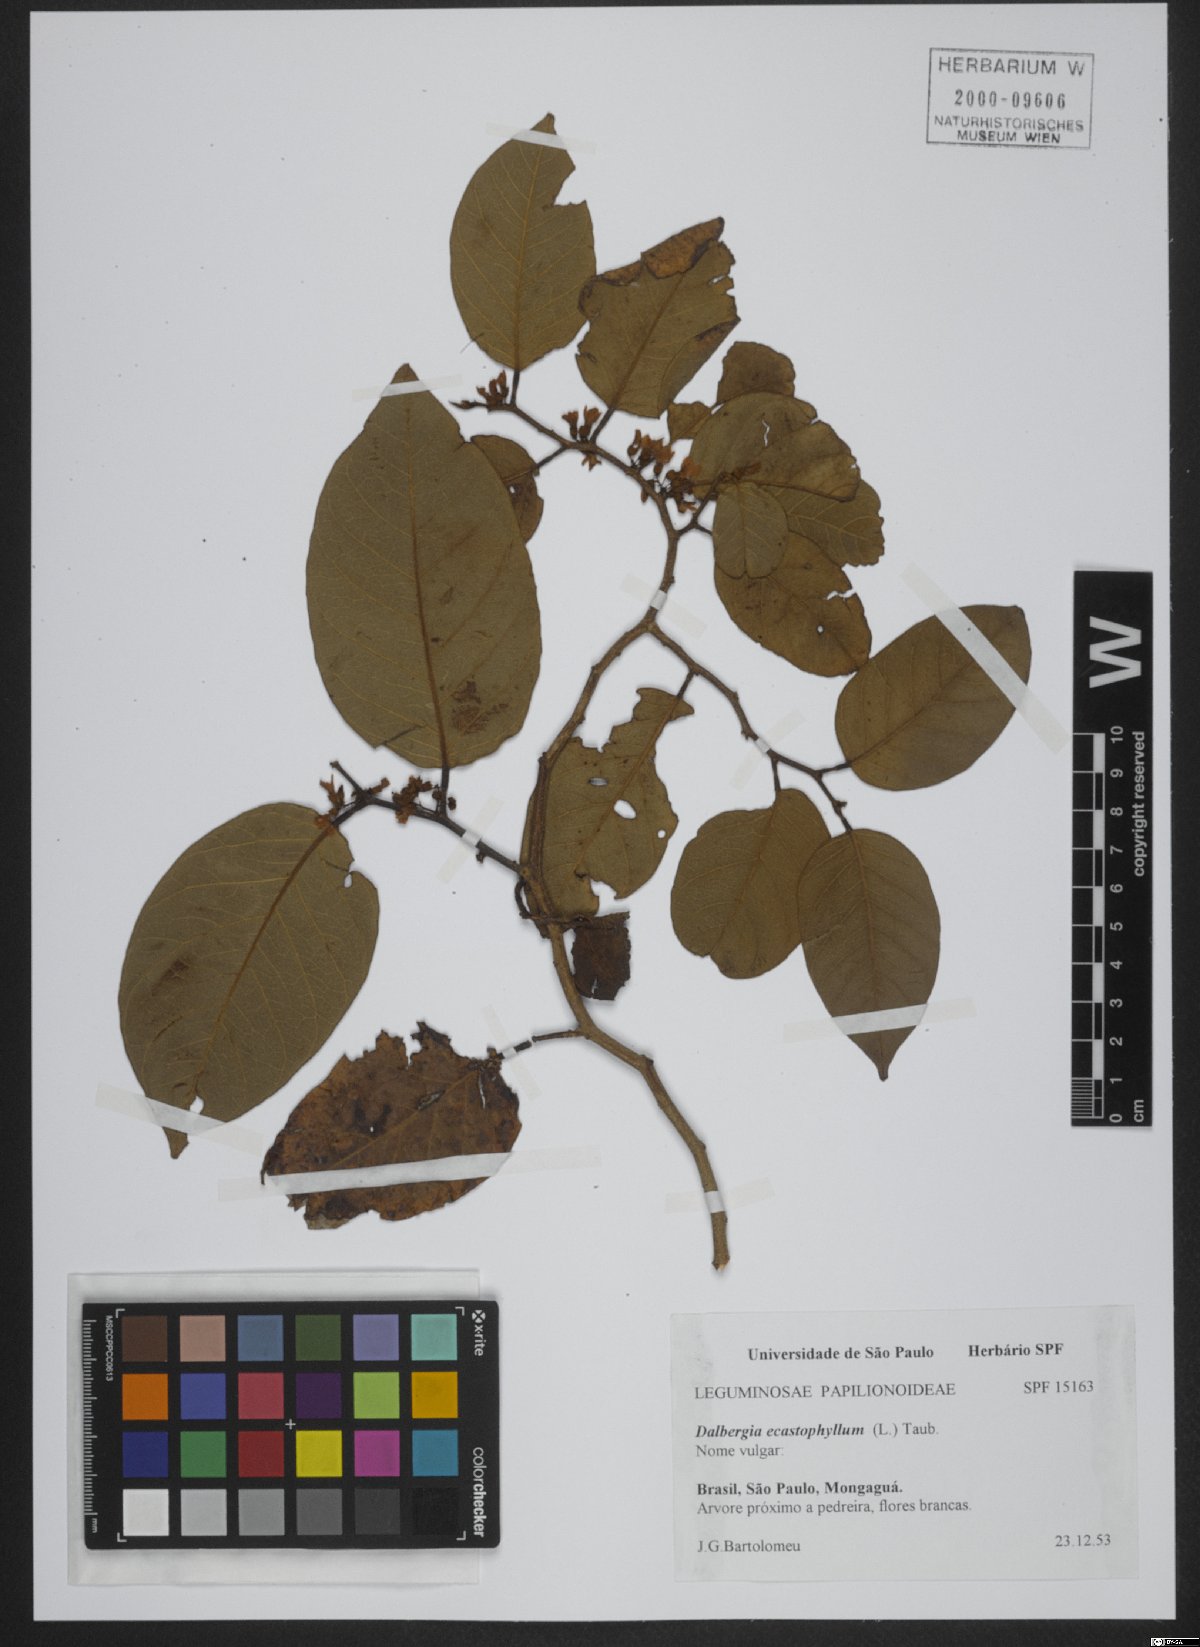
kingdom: Plantae
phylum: Tracheophyta
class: Magnoliopsida
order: Fabales
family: Fabaceae
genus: Dalbergia
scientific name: Dalbergia ecastaphyllum
